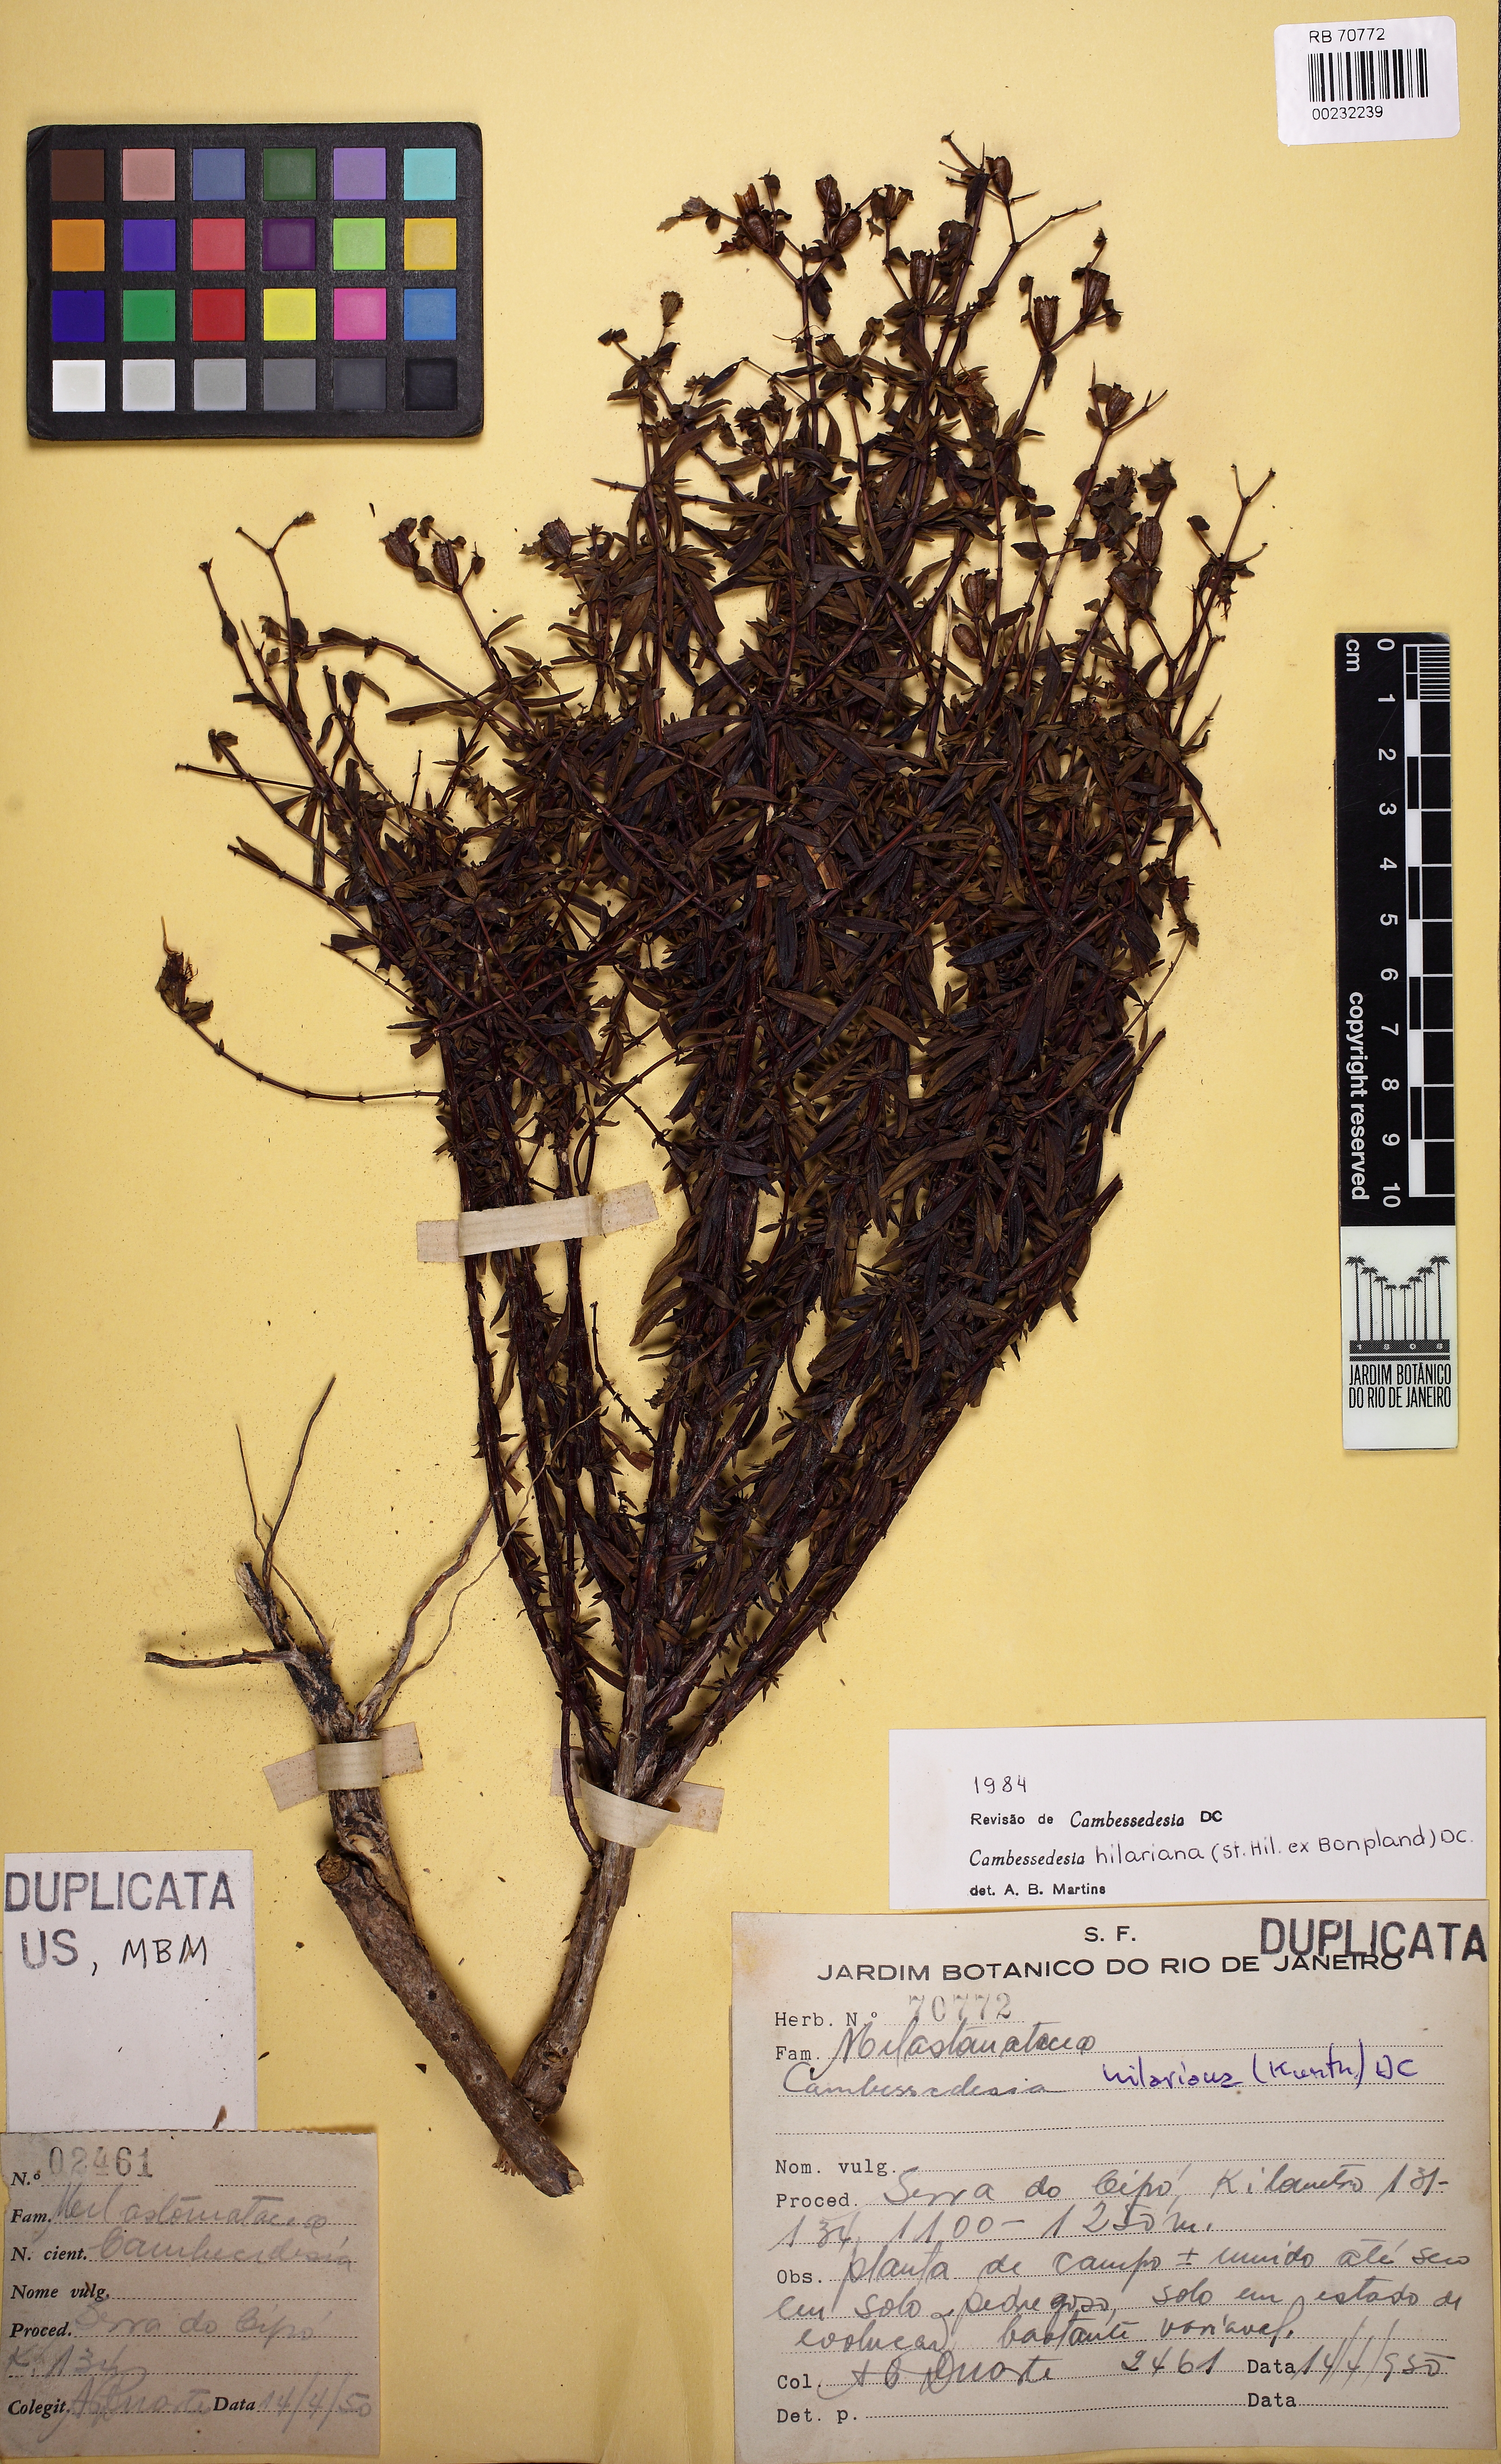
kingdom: Plantae
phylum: Tracheophyta
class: Magnoliopsida
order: Myrtales
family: Melastomataceae
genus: Cambessedesia
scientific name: Cambessedesia hilariana
